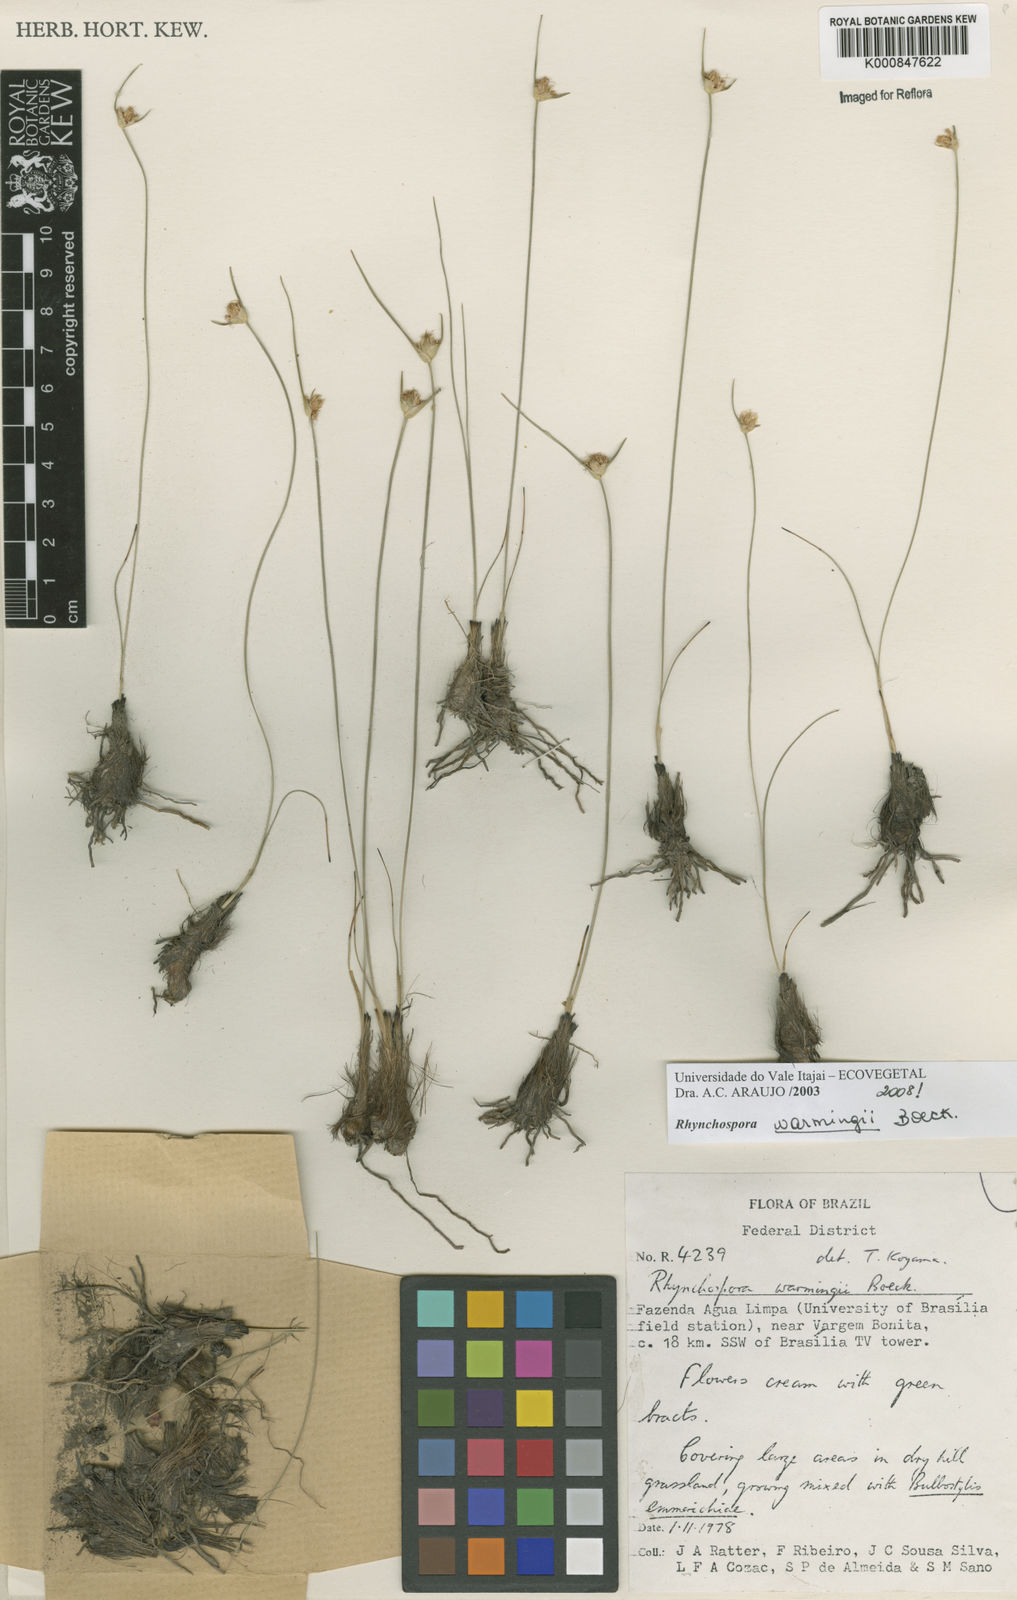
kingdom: Plantae
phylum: Tracheophyta
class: Liliopsida
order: Poales
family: Cyperaceae
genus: Rhynchospora
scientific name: Rhynchospora warmingii
